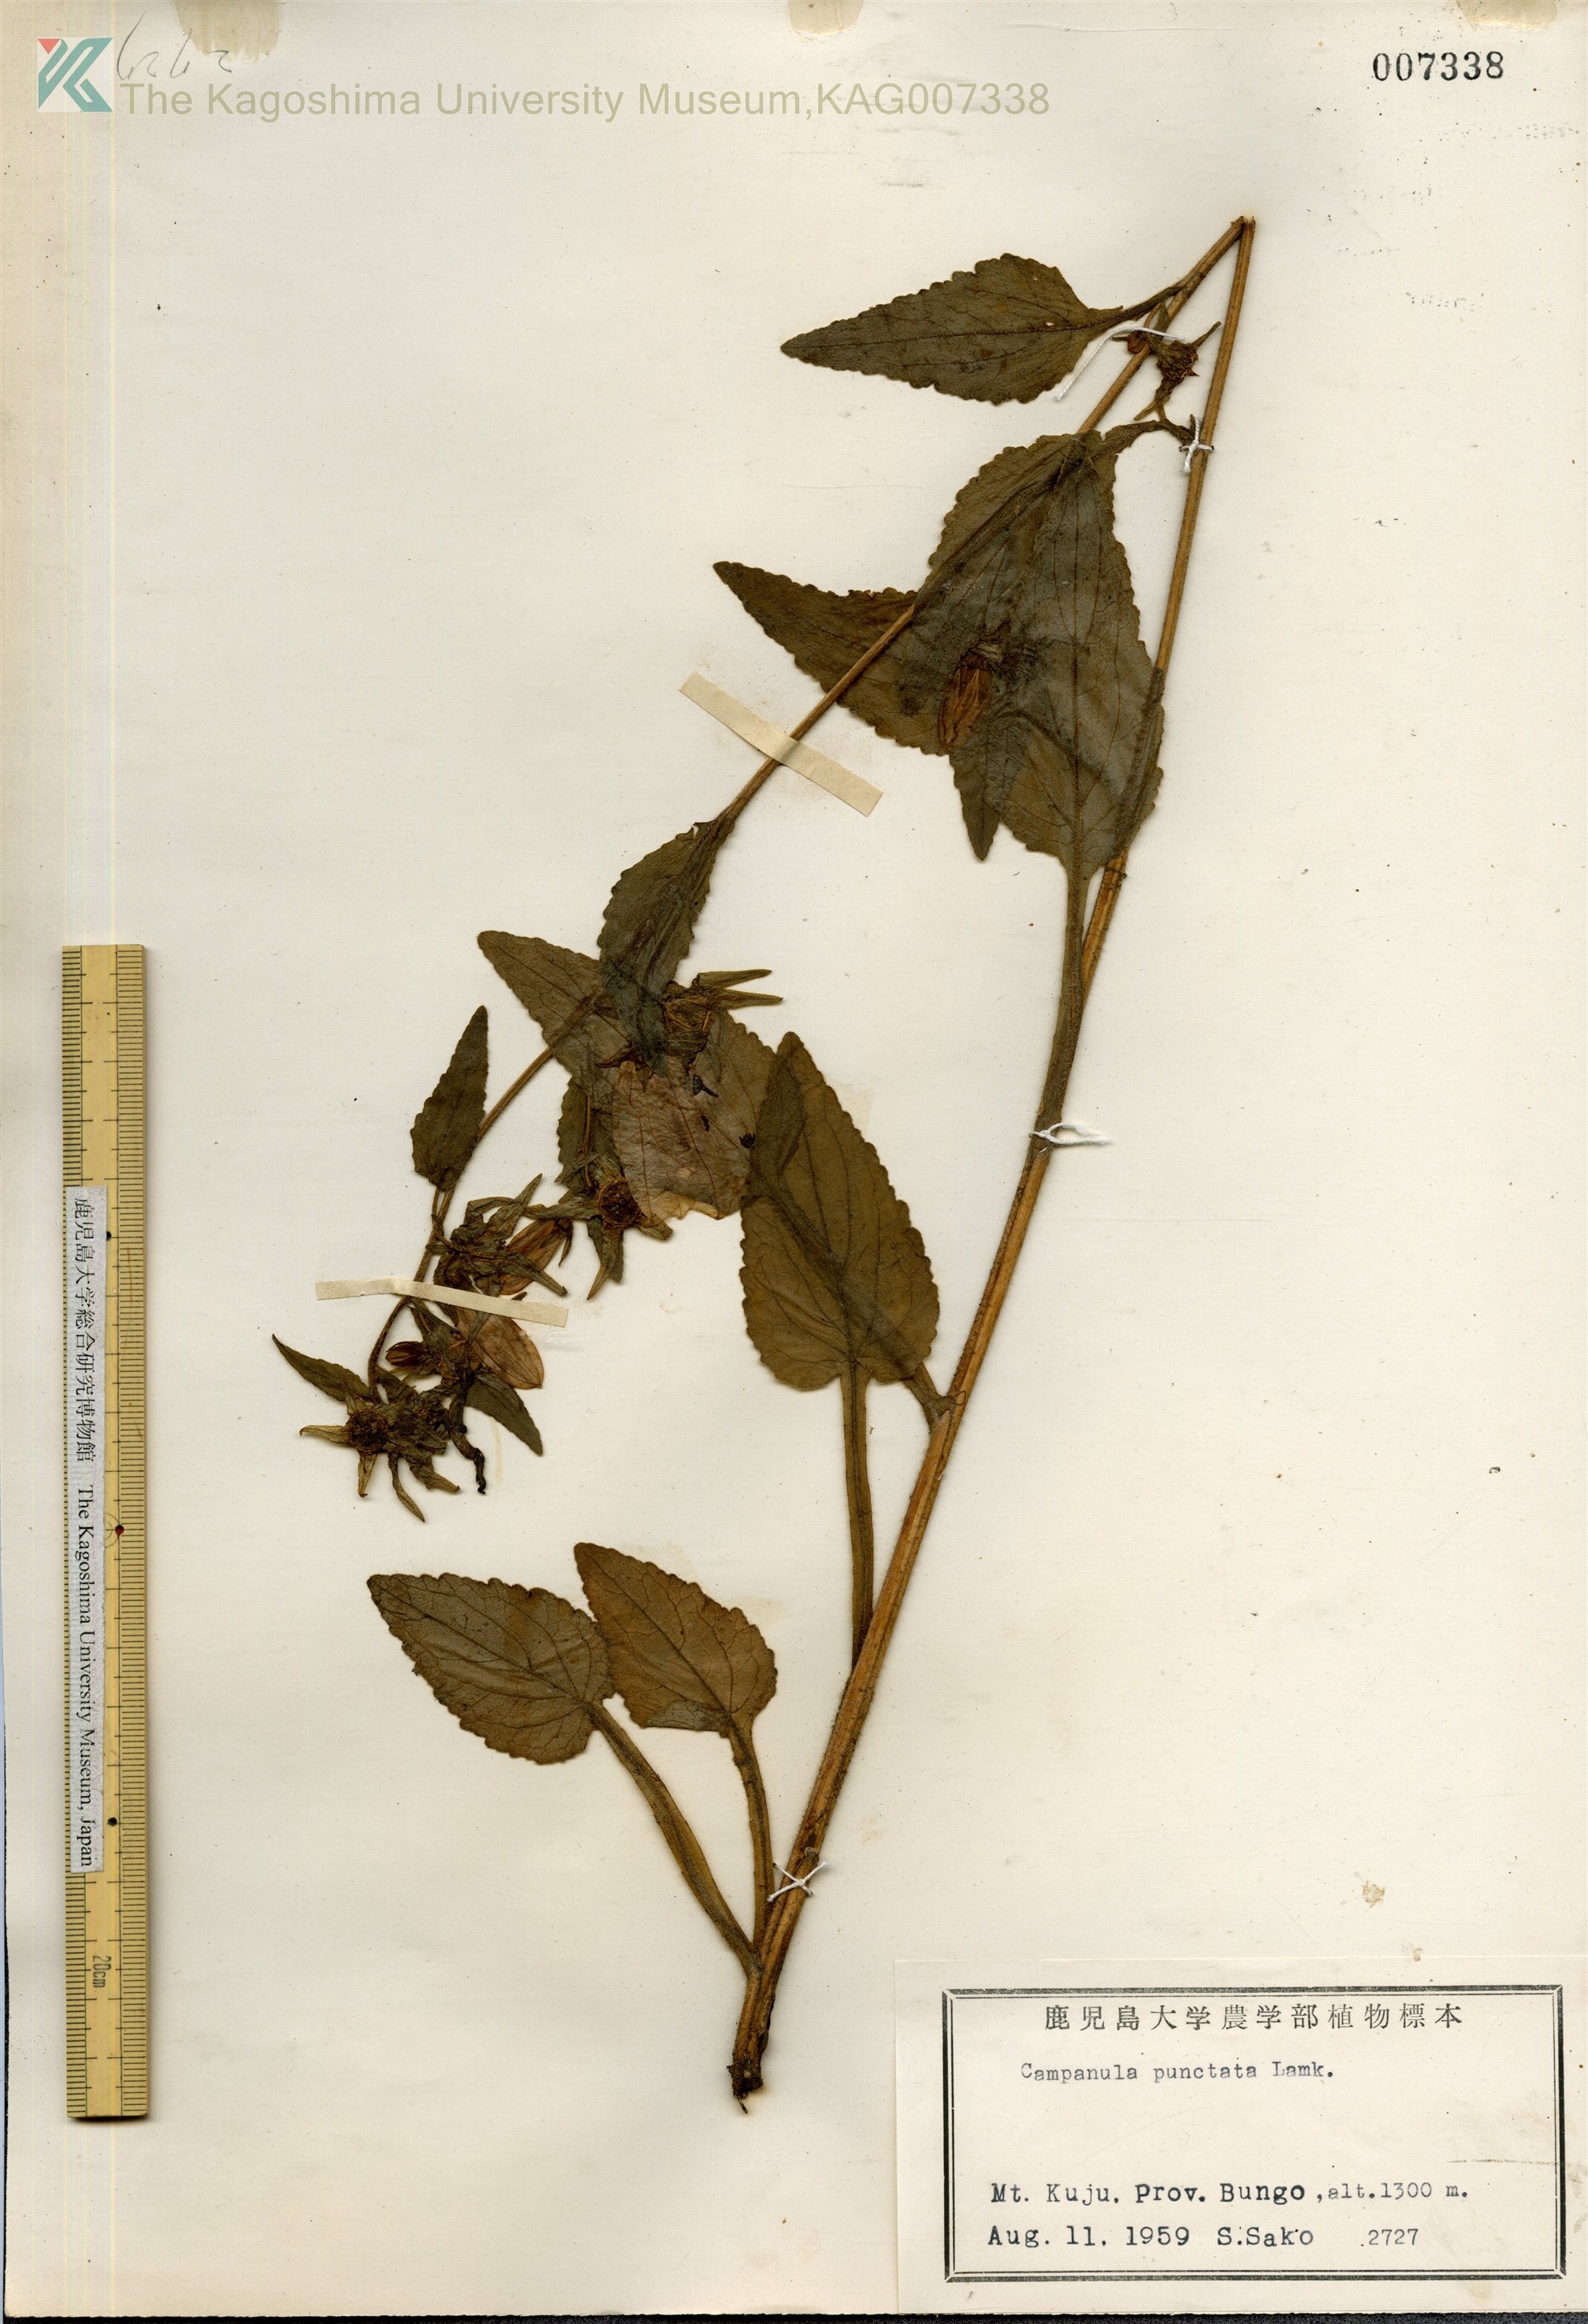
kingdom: Plantae
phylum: Tracheophyta
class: Magnoliopsida
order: Asterales
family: Campanulaceae
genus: Campanula
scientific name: Campanula punctata
